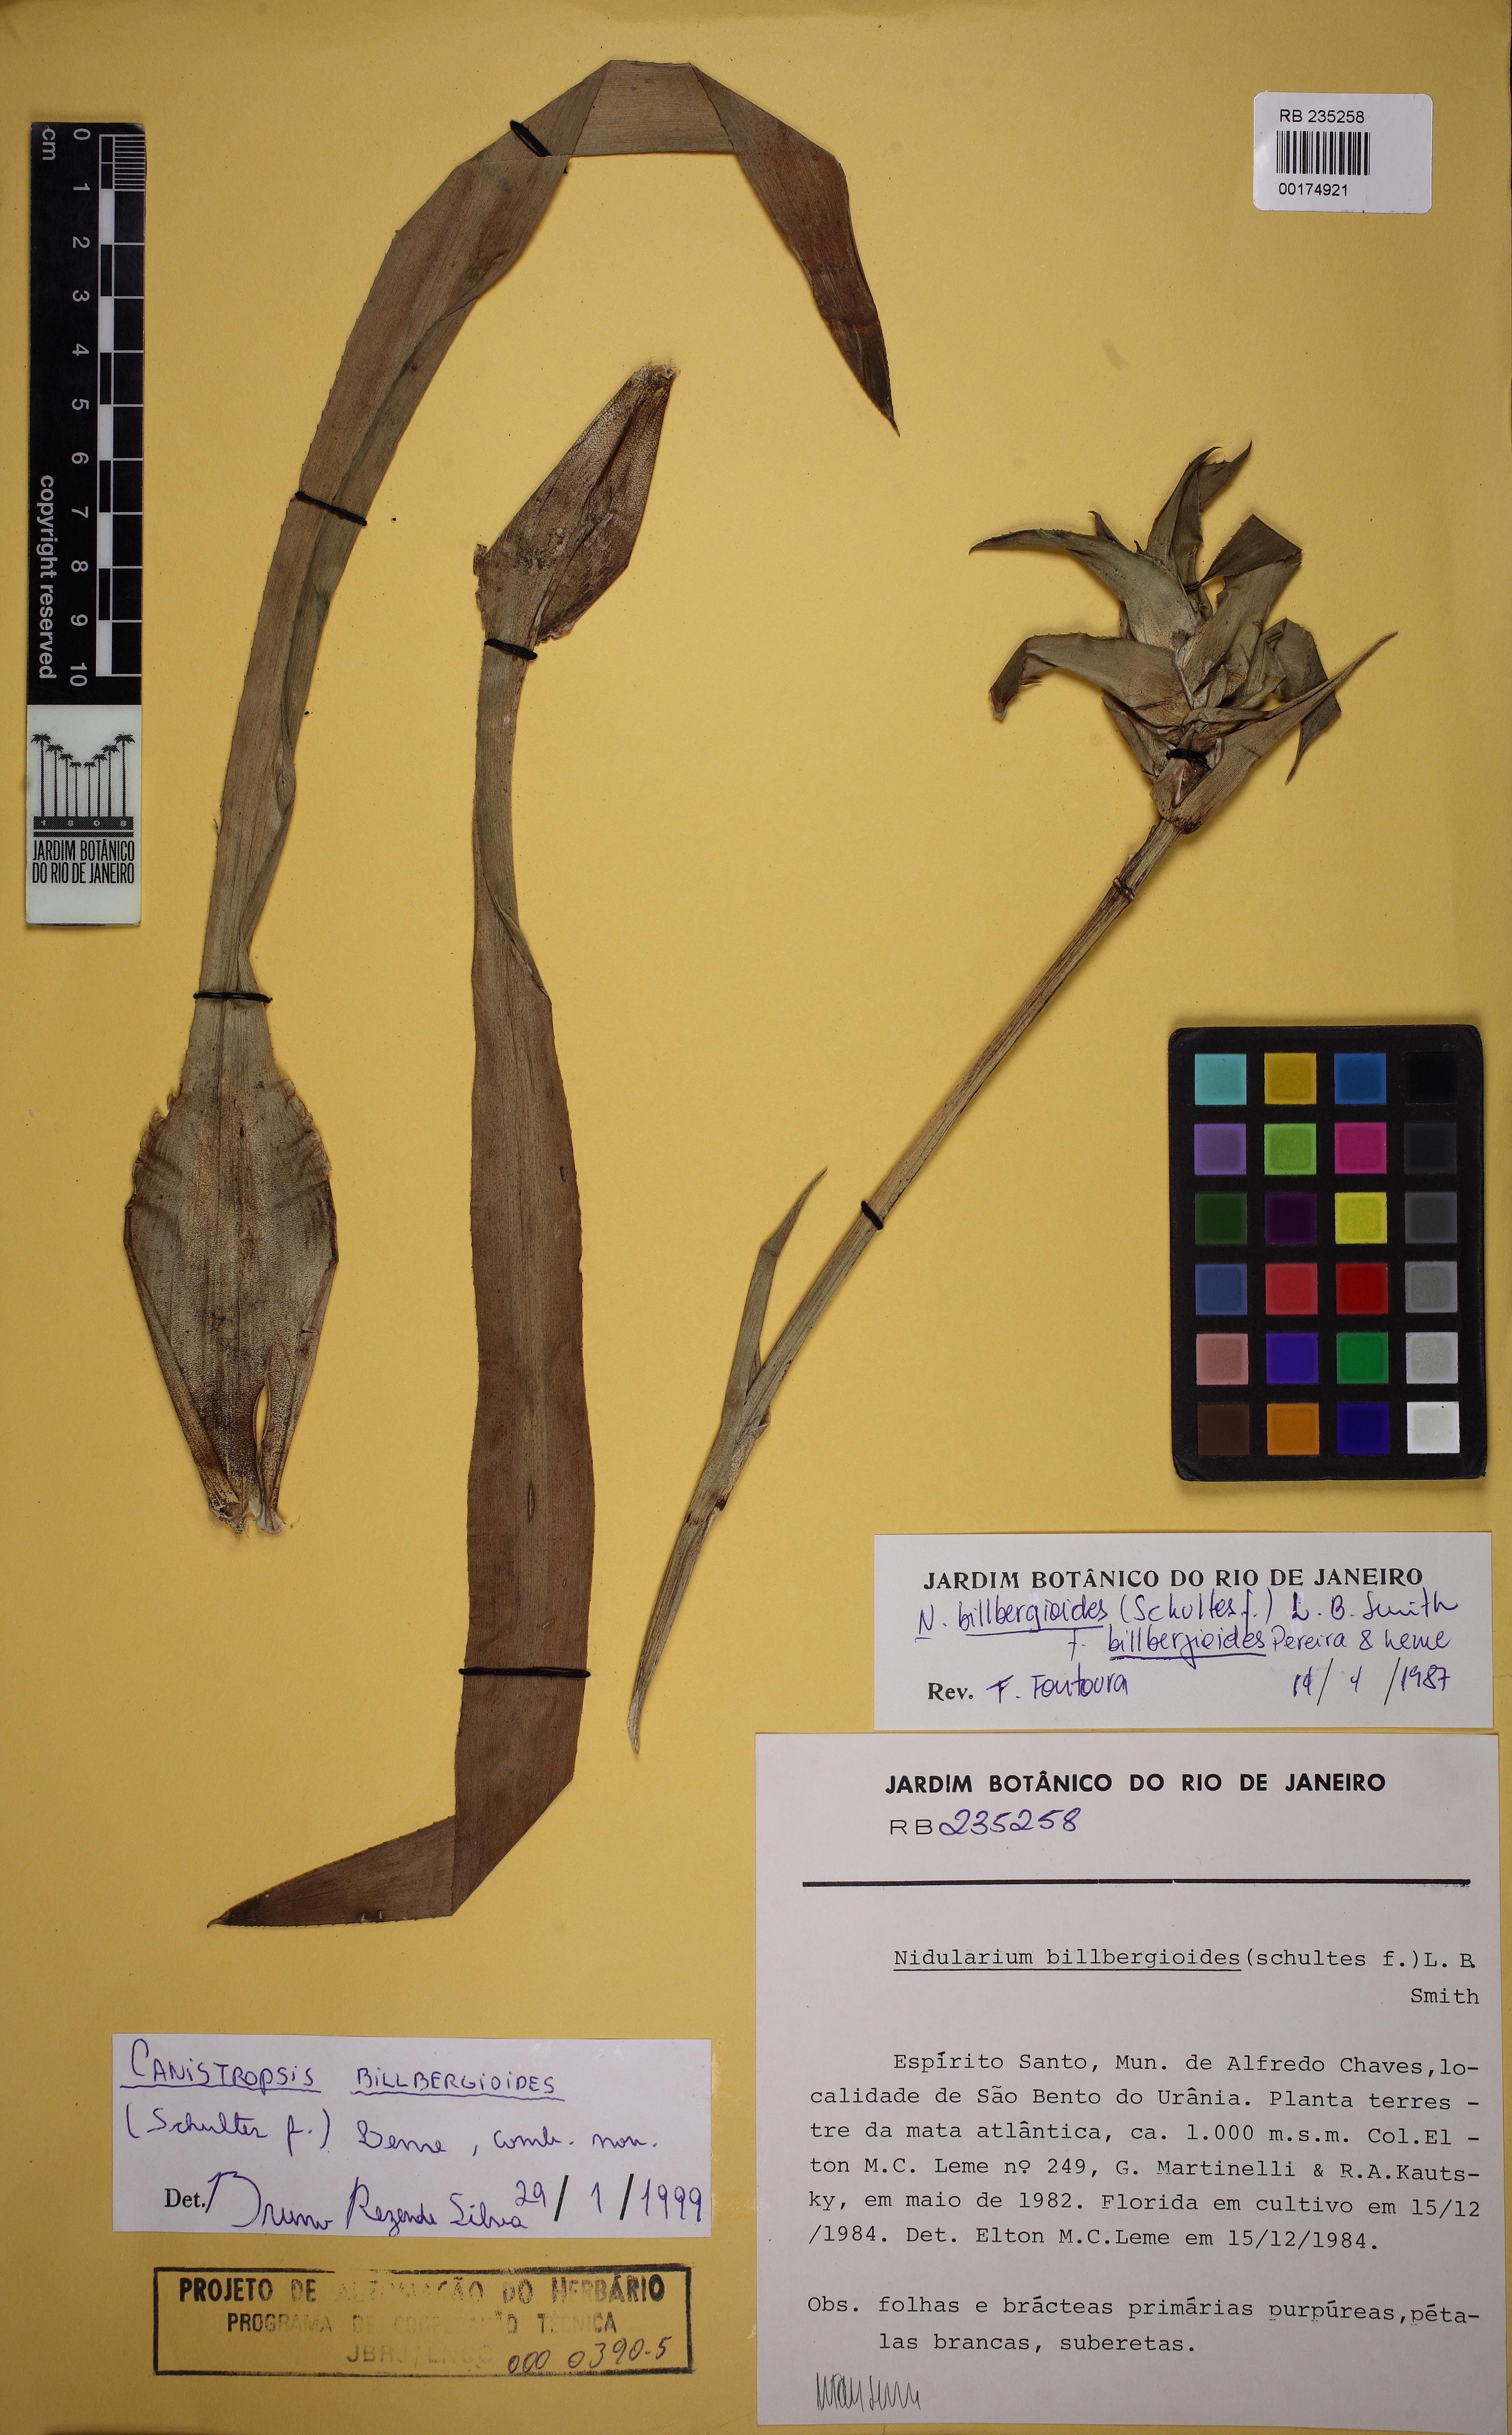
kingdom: Plantae
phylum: Tracheophyta
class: Liliopsida
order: Poales
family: Bromeliaceae
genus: Canistropsis
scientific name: Canistropsis billbergioides
